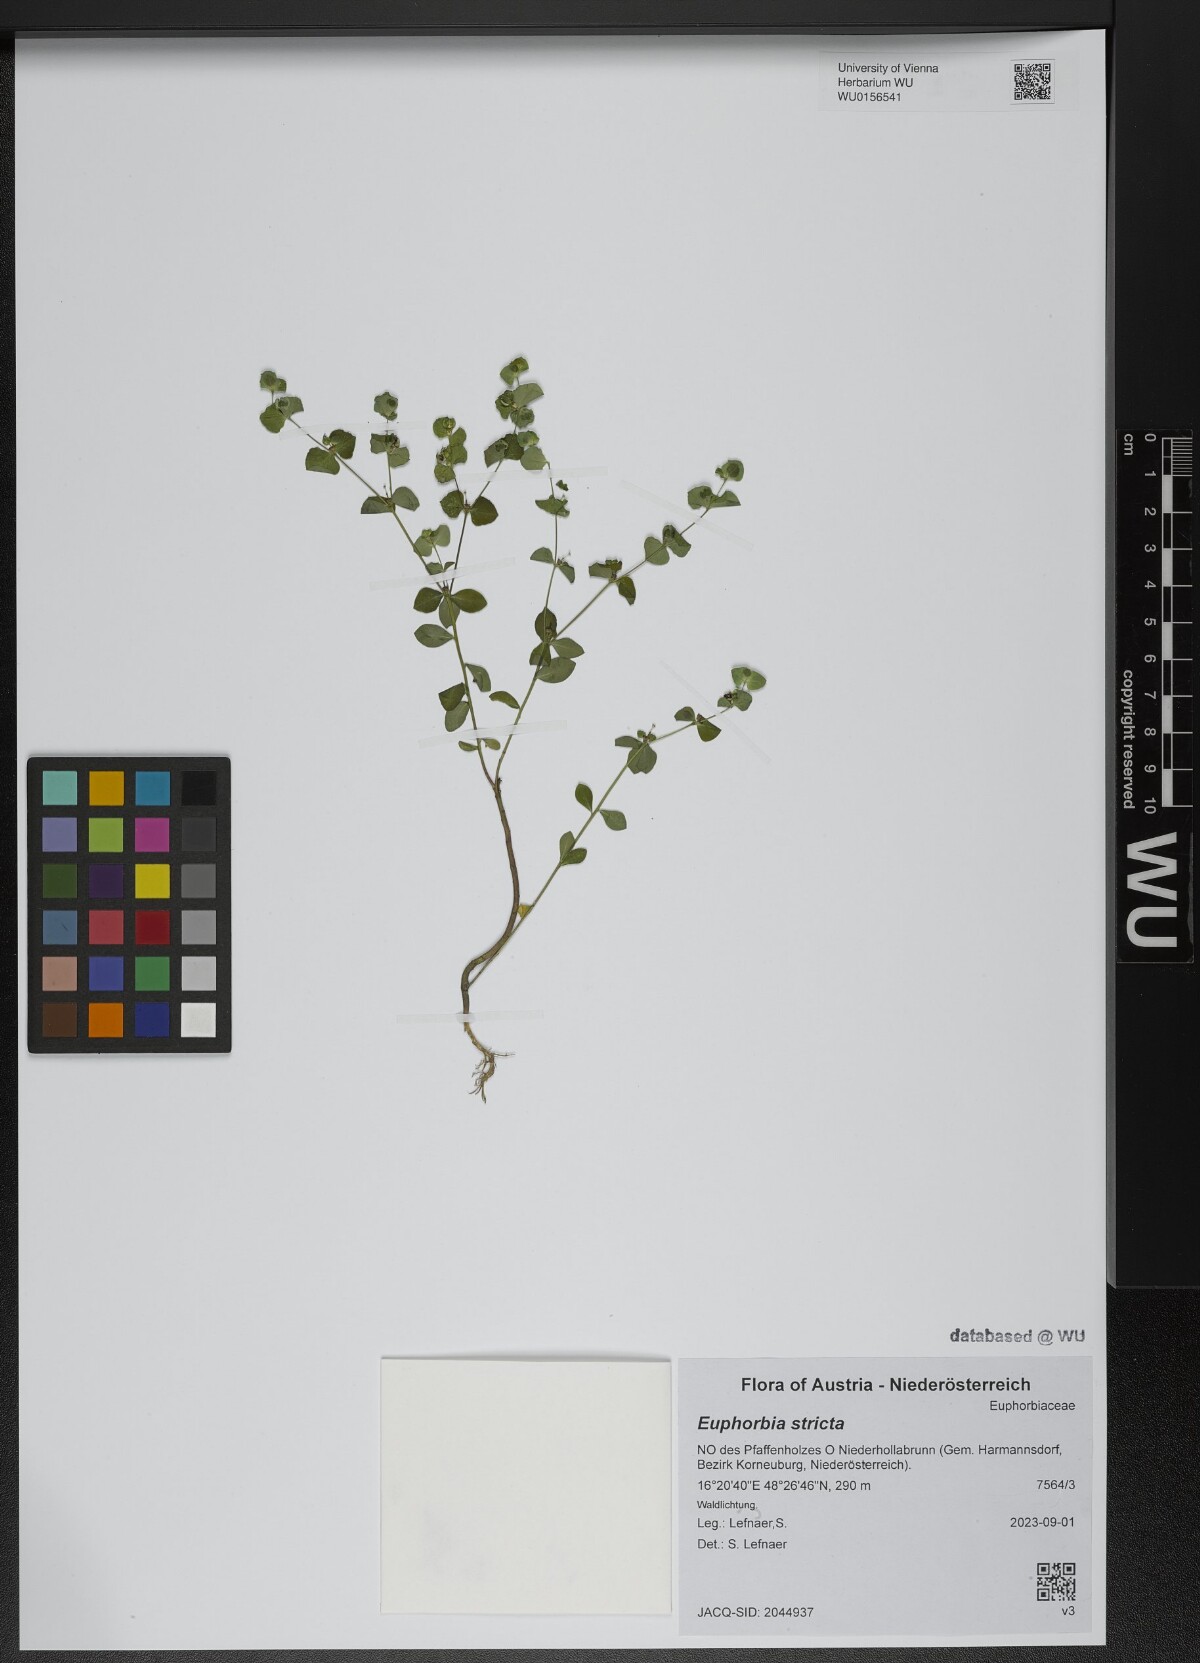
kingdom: Plantae
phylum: Tracheophyta
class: Magnoliopsida
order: Malpighiales
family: Euphorbiaceae
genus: Euphorbia
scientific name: Euphorbia stricta
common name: Upright spurge
